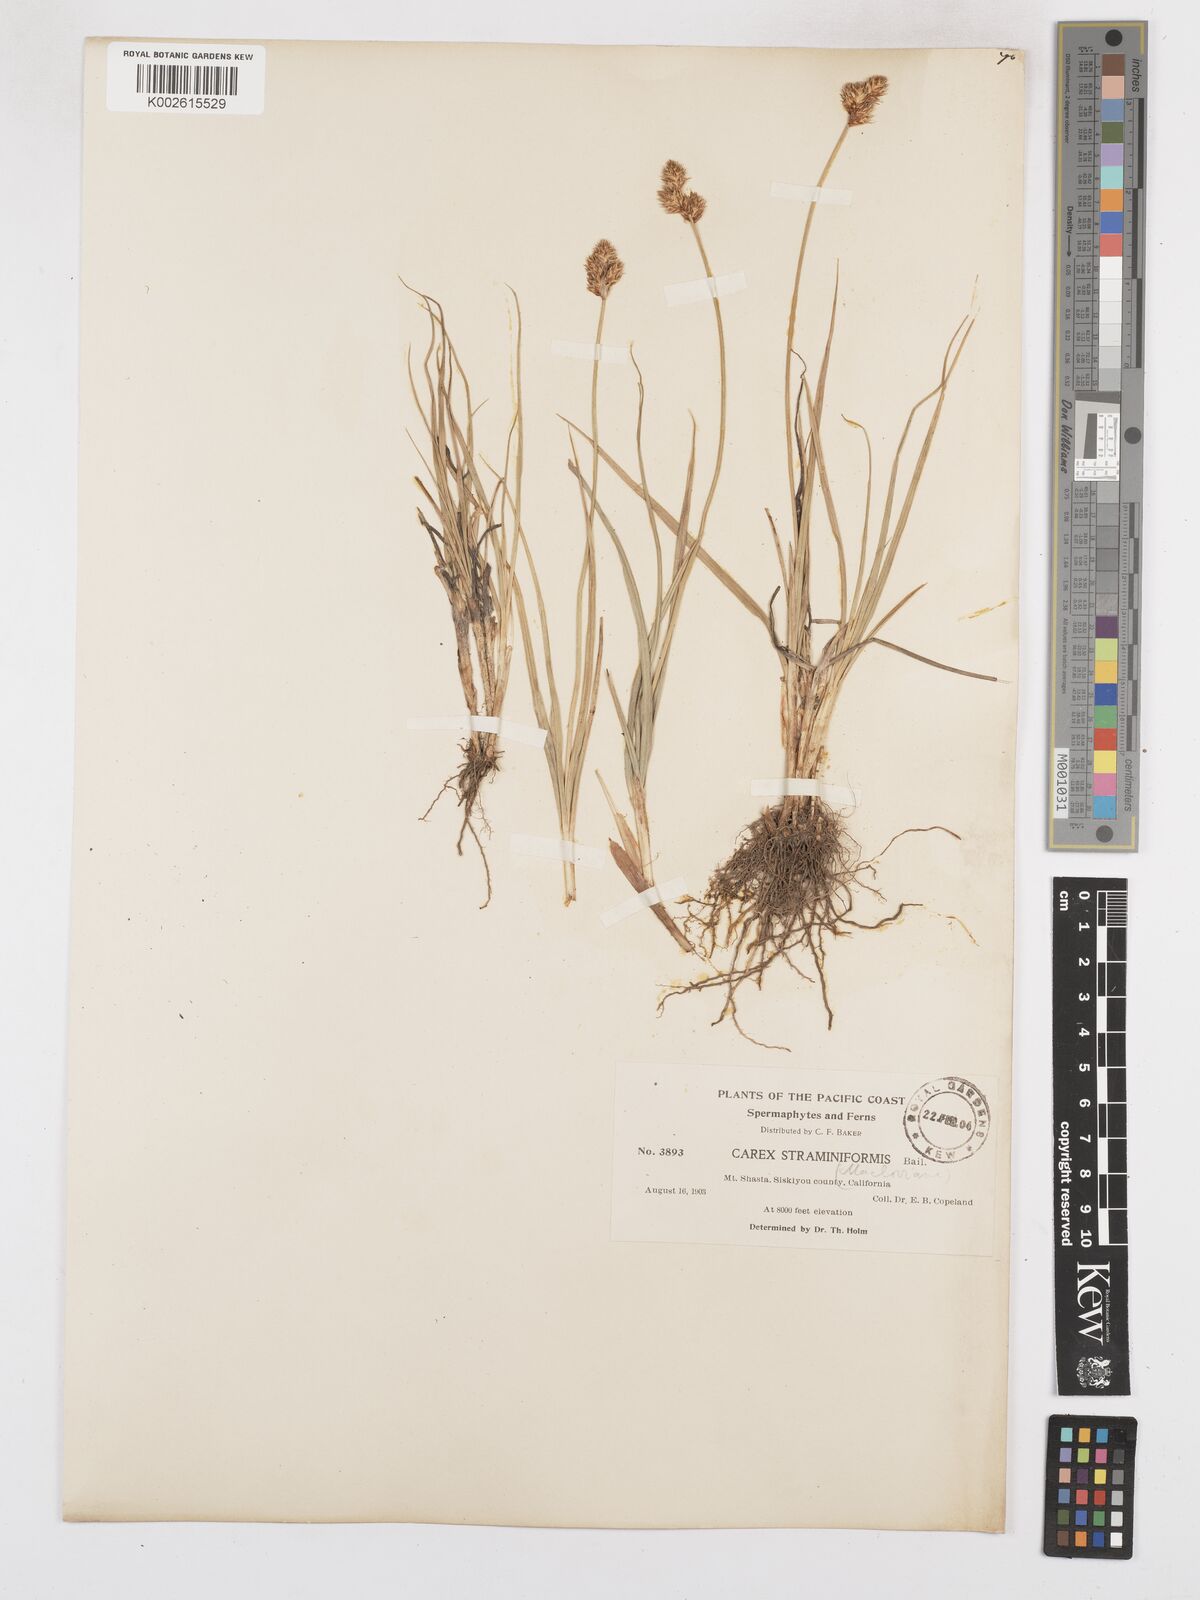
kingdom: Plantae
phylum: Tracheophyta
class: Liliopsida
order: Poales
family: Cyperaceae
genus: Carex
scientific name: Carex macloviana
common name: Falkland island sedge
